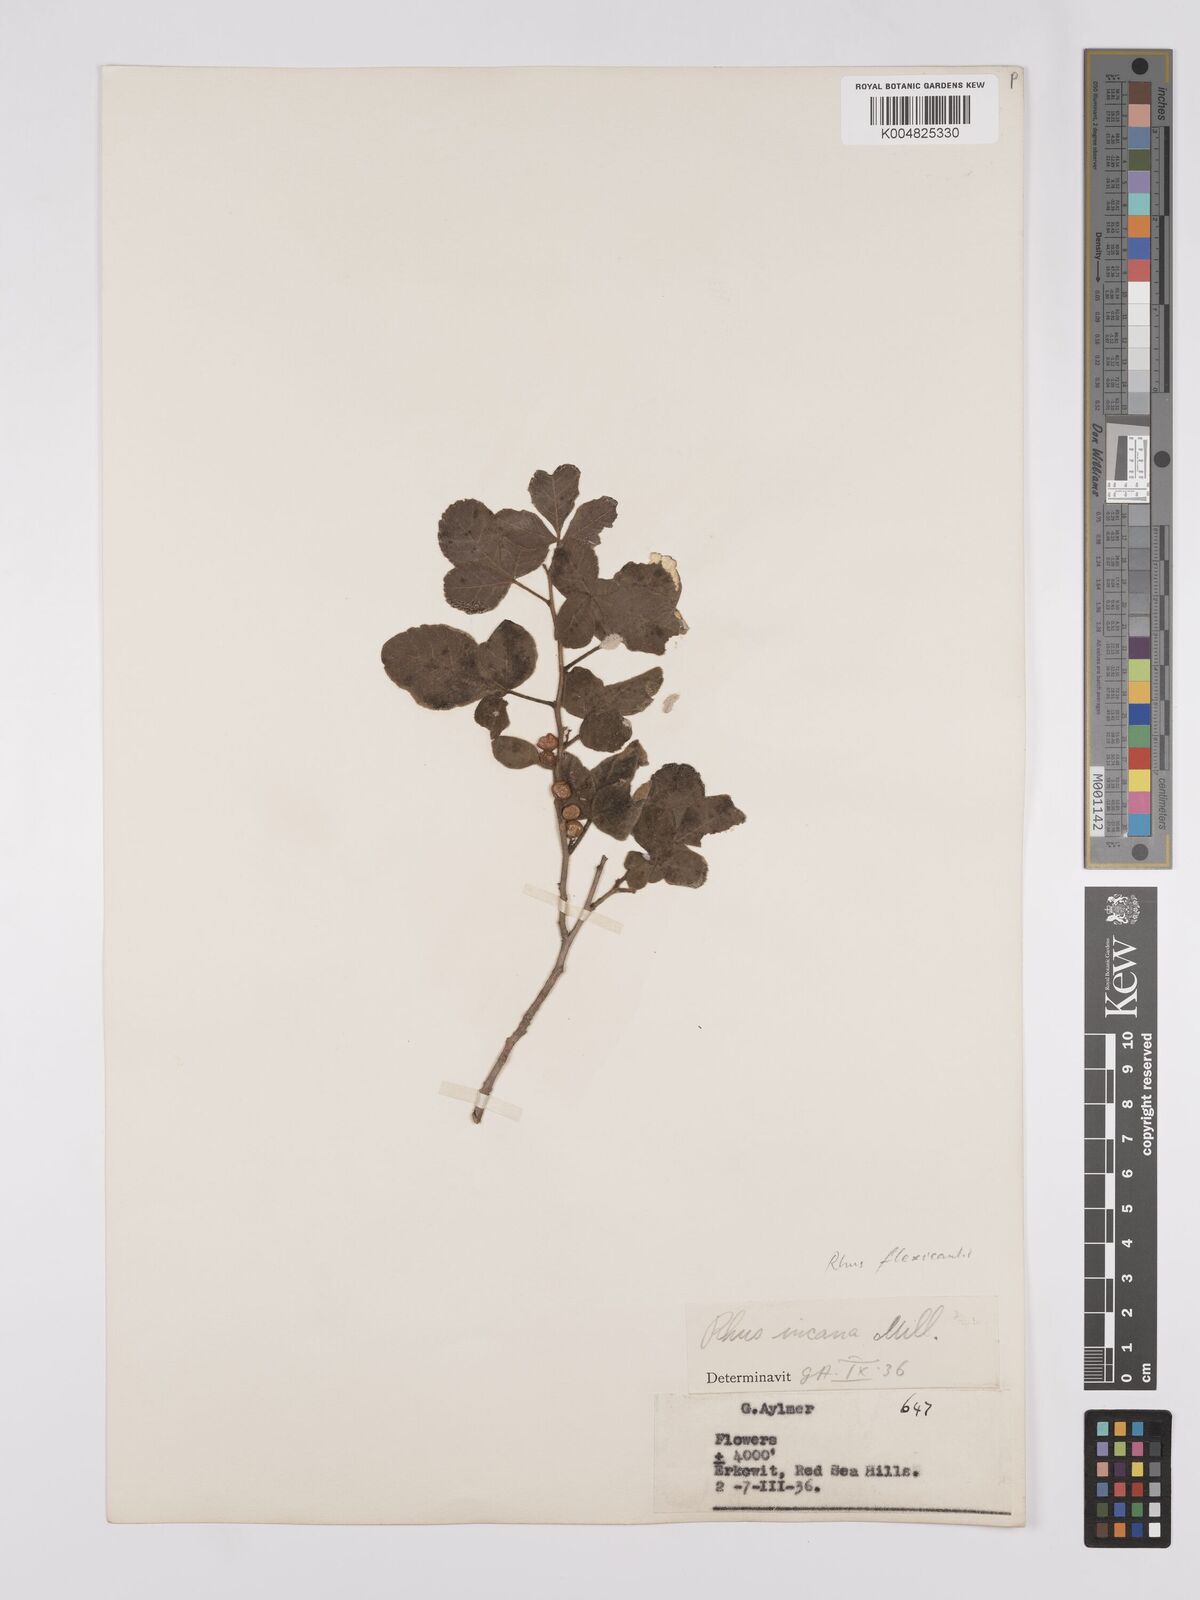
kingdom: Plantae
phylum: Tracheophyta
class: Magnoliopsida
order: Sapindales
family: Anacardiaceae
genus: Searsia
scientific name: Searsia flexicaulis
